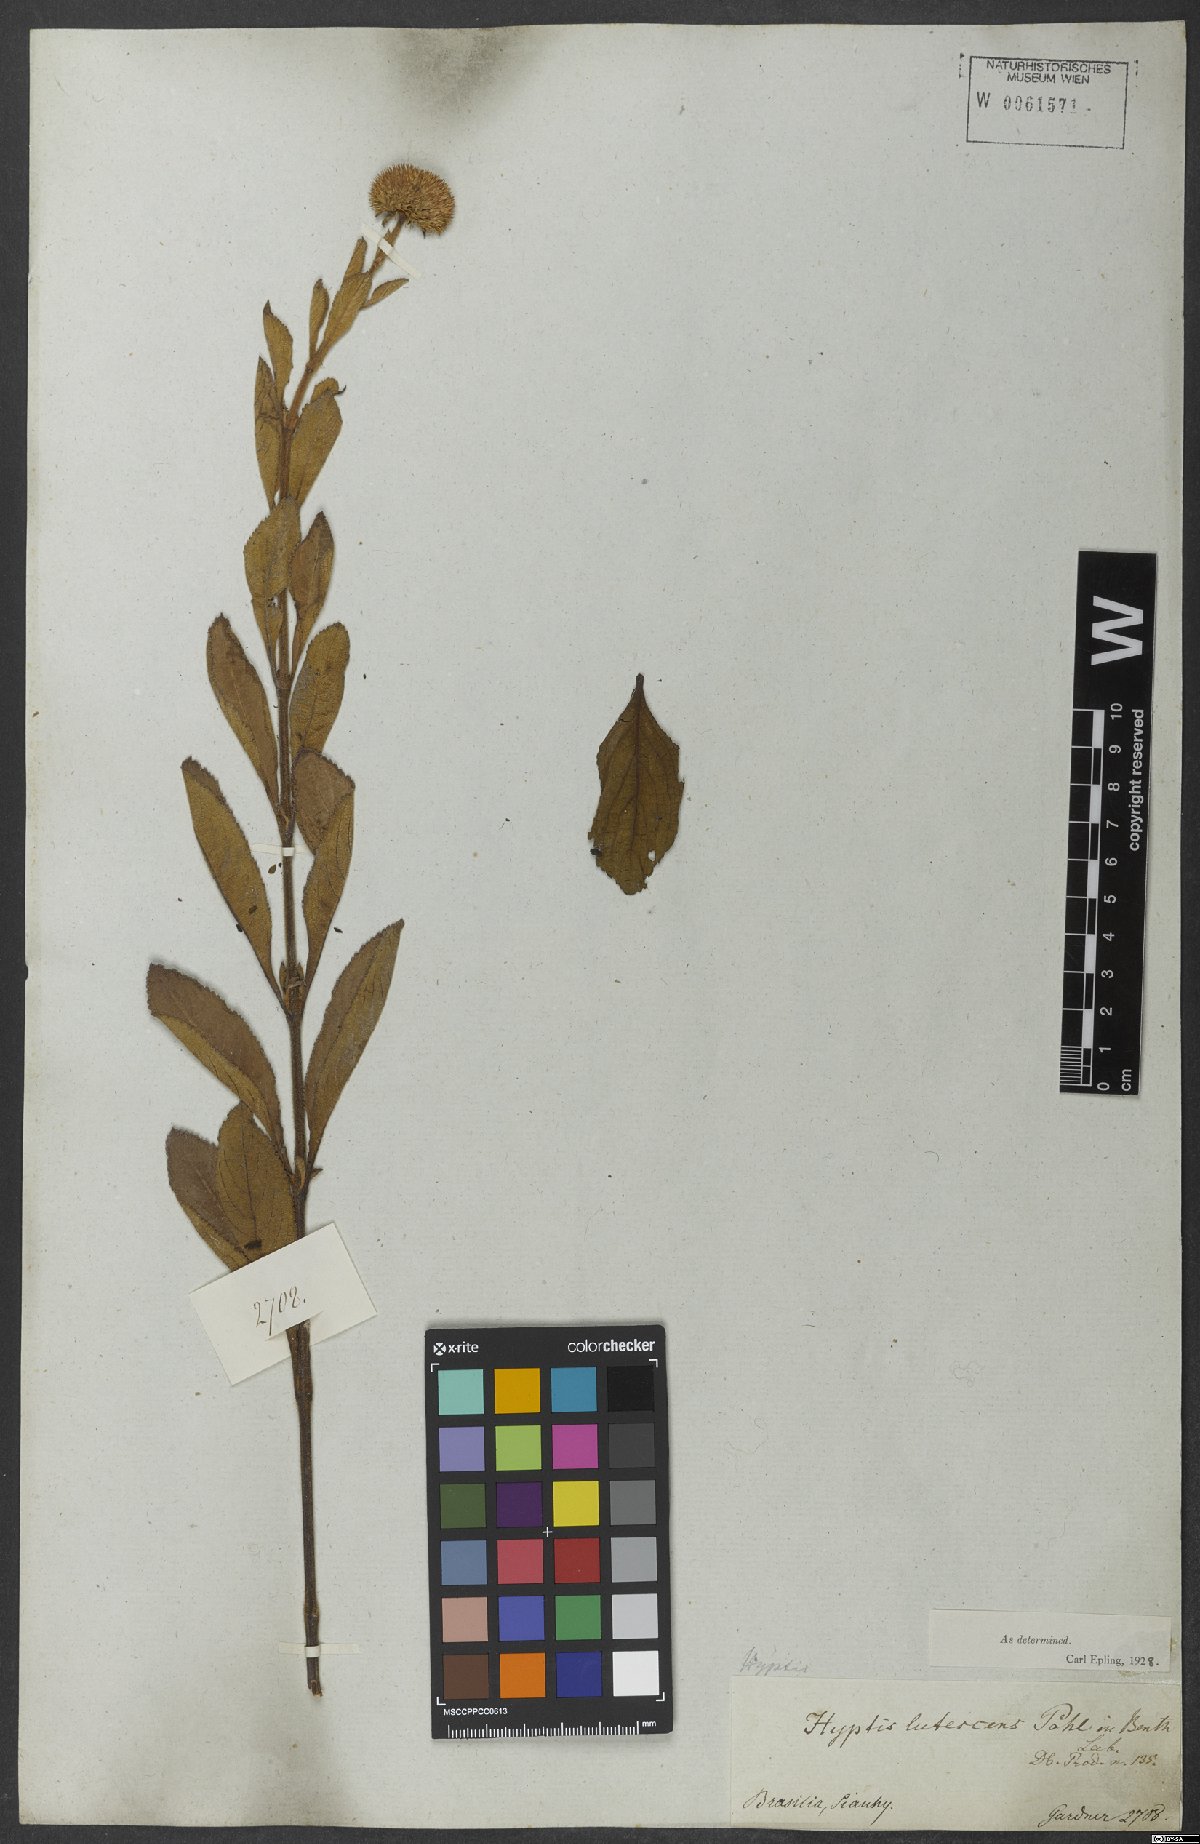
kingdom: Plantae
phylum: Tracheophyta
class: Magnoliopsida
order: Lamiales
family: Lamiaceae
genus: Hyptis
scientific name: Hyptis lutescens
